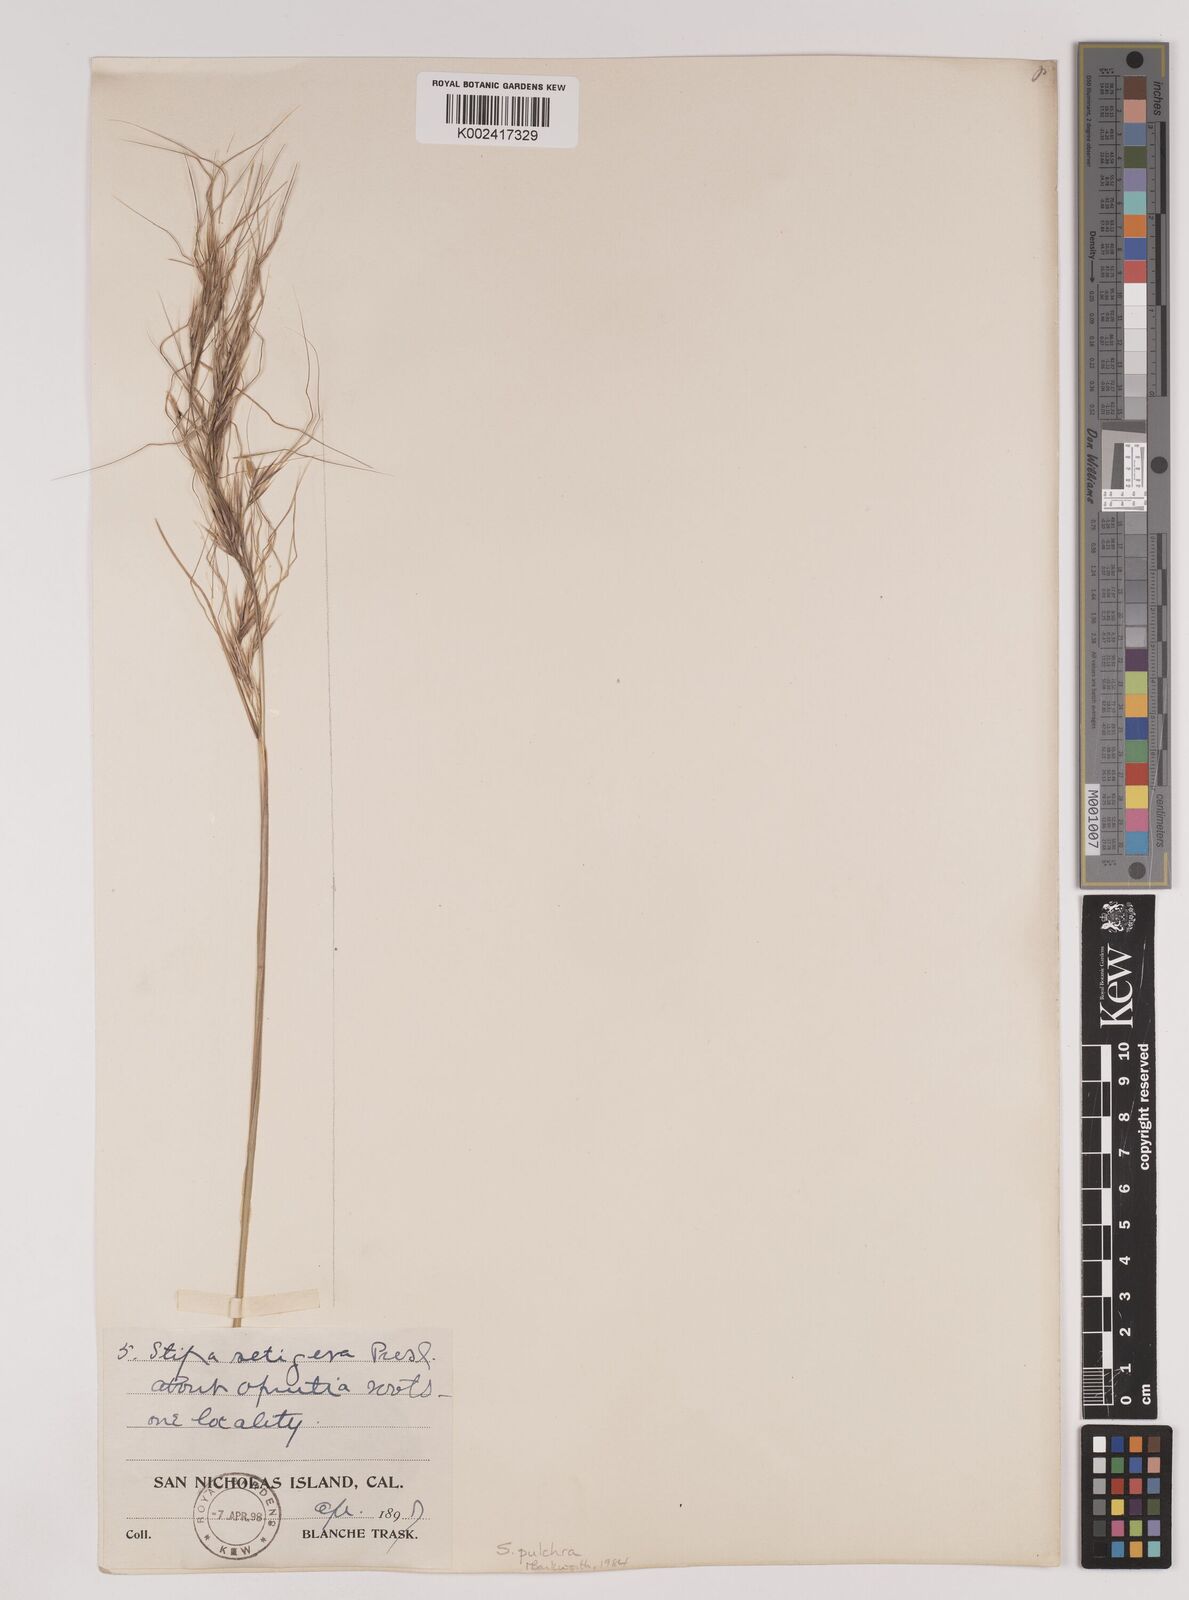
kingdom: Plantae
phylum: Tracheophyta
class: Liliopsida
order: Poales
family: Poaceae
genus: Nassella
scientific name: Nassella pulchra
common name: Purple needlegrass
